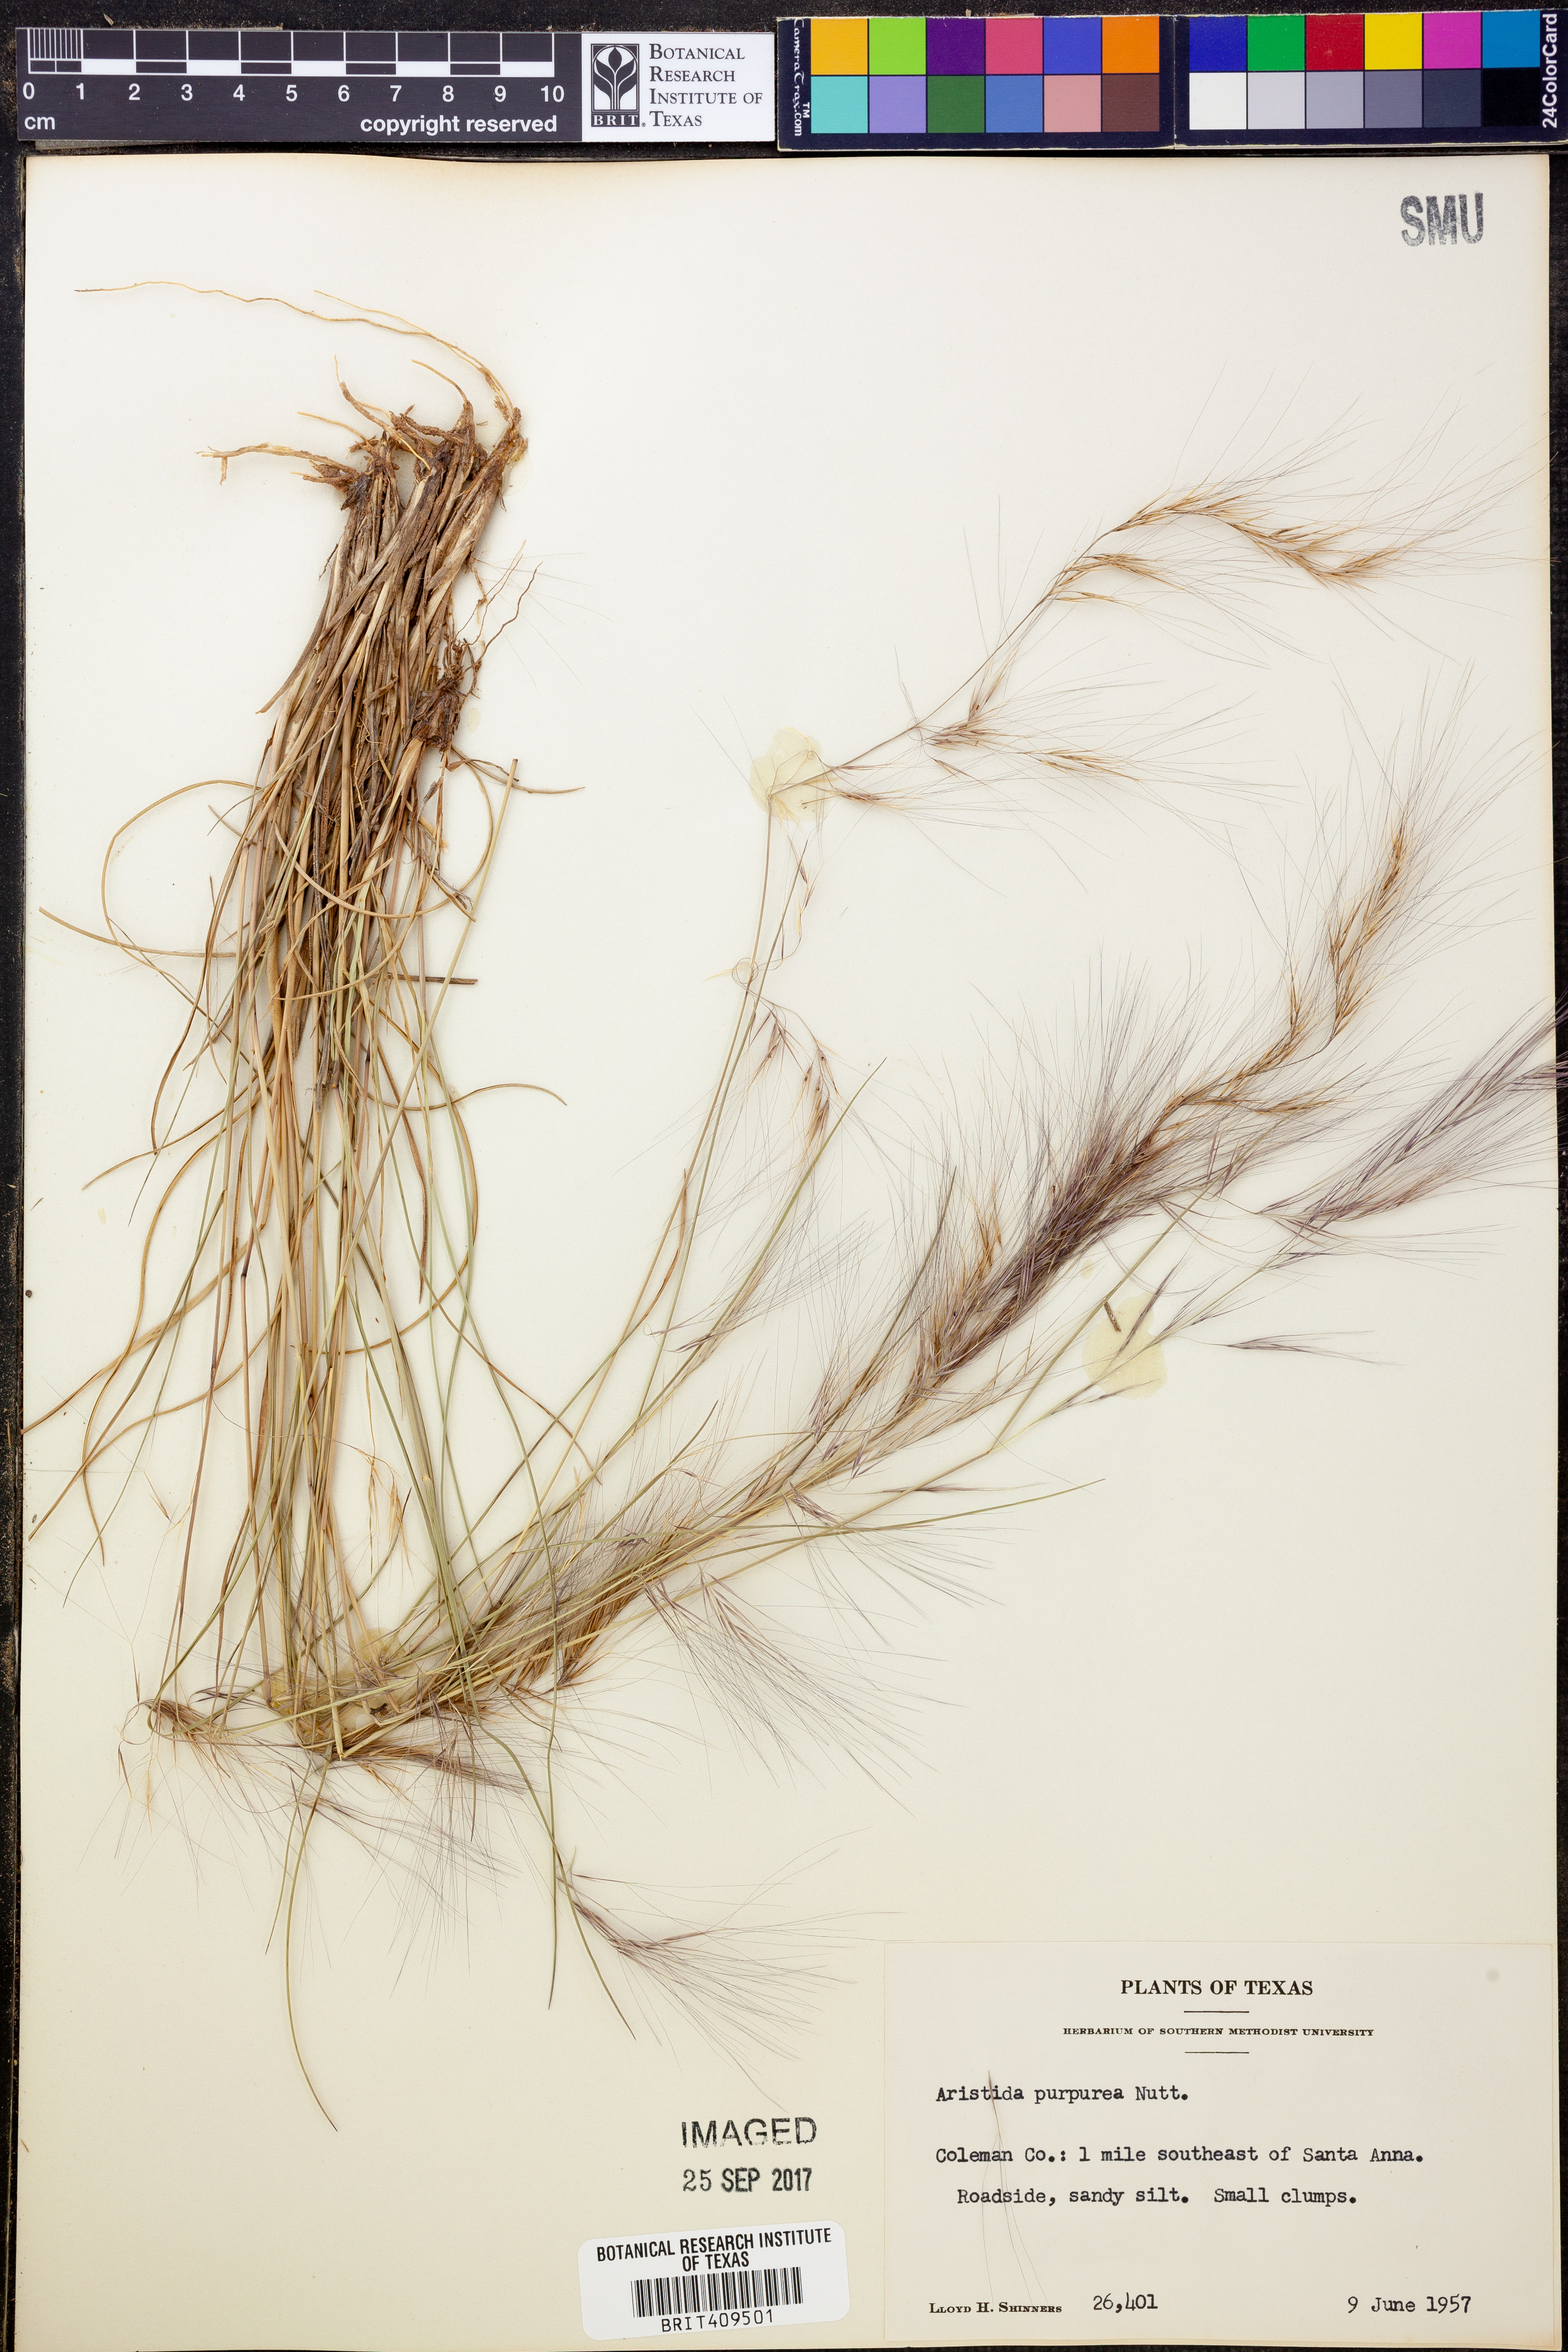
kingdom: Plantae
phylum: Tracheophyta
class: Liliopsida
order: Poales
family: Poaceae
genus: Aristida
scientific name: Aristida purpurea
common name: Purple threeawn
